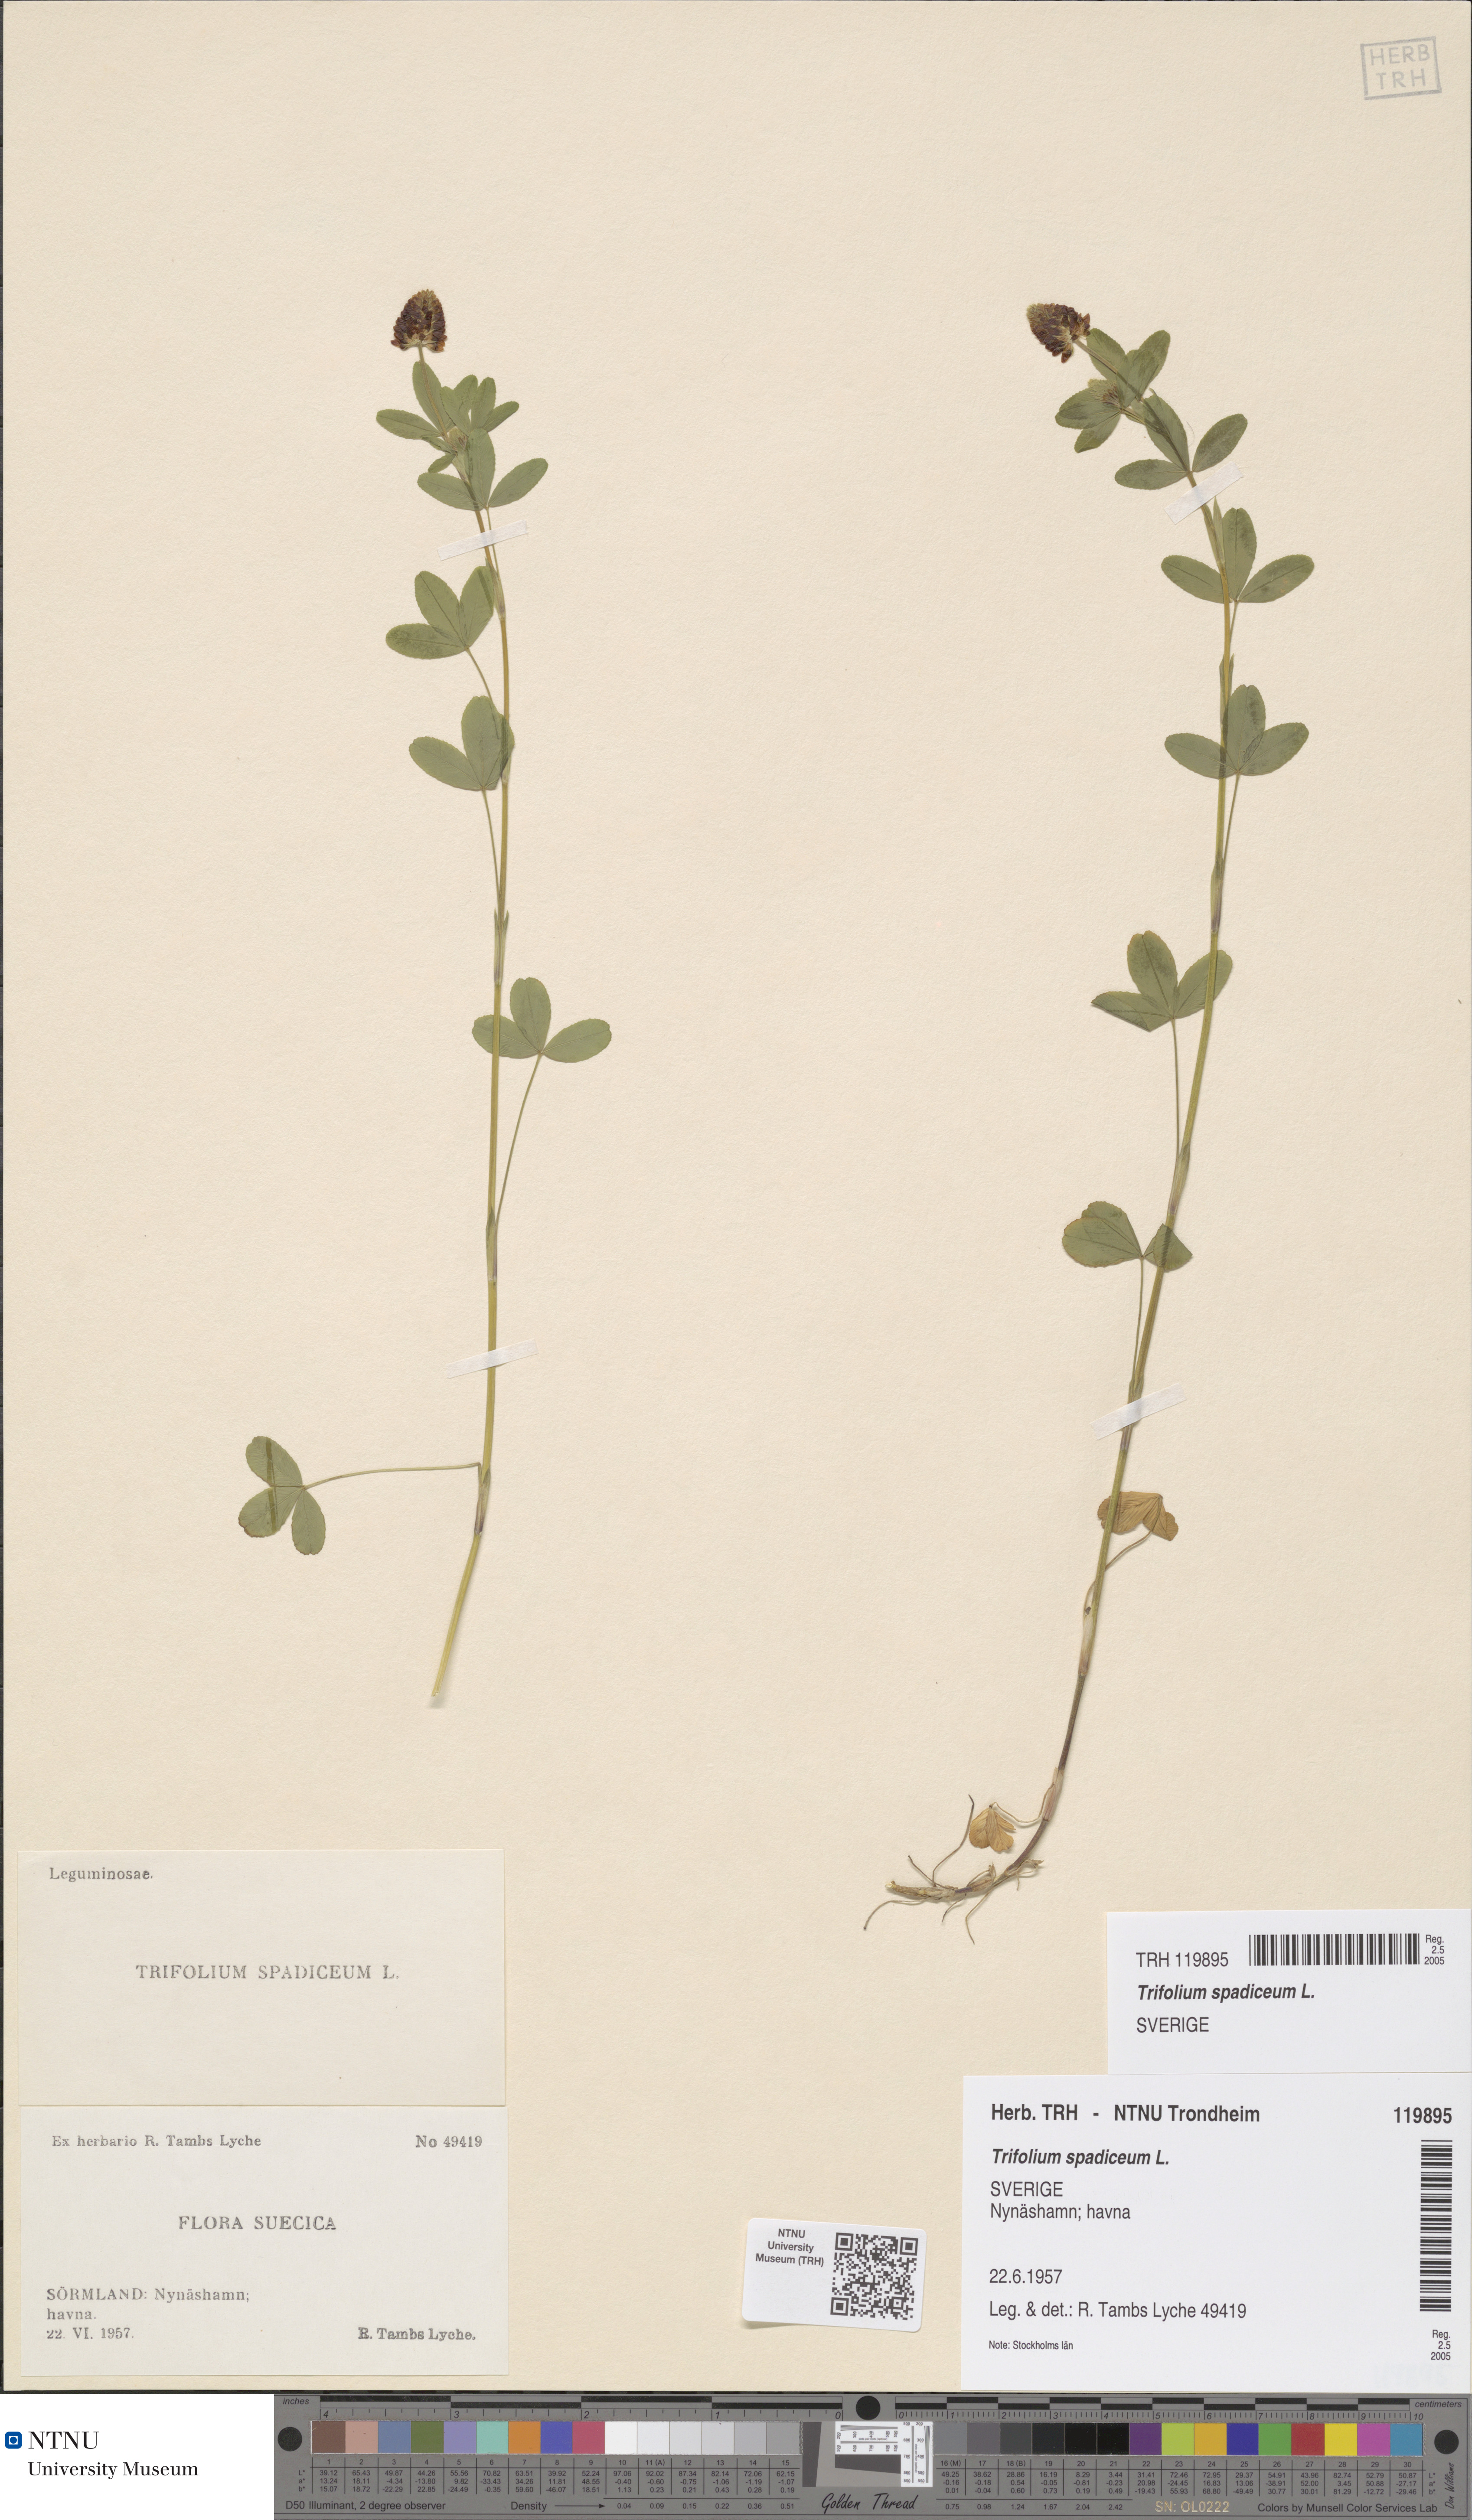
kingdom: Plantae
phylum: Tracheophyta
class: Magnoliopsida
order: Fabales
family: Fabaceae
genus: Trifolium
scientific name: Trifolium spadiceum
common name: Brown moor clover
